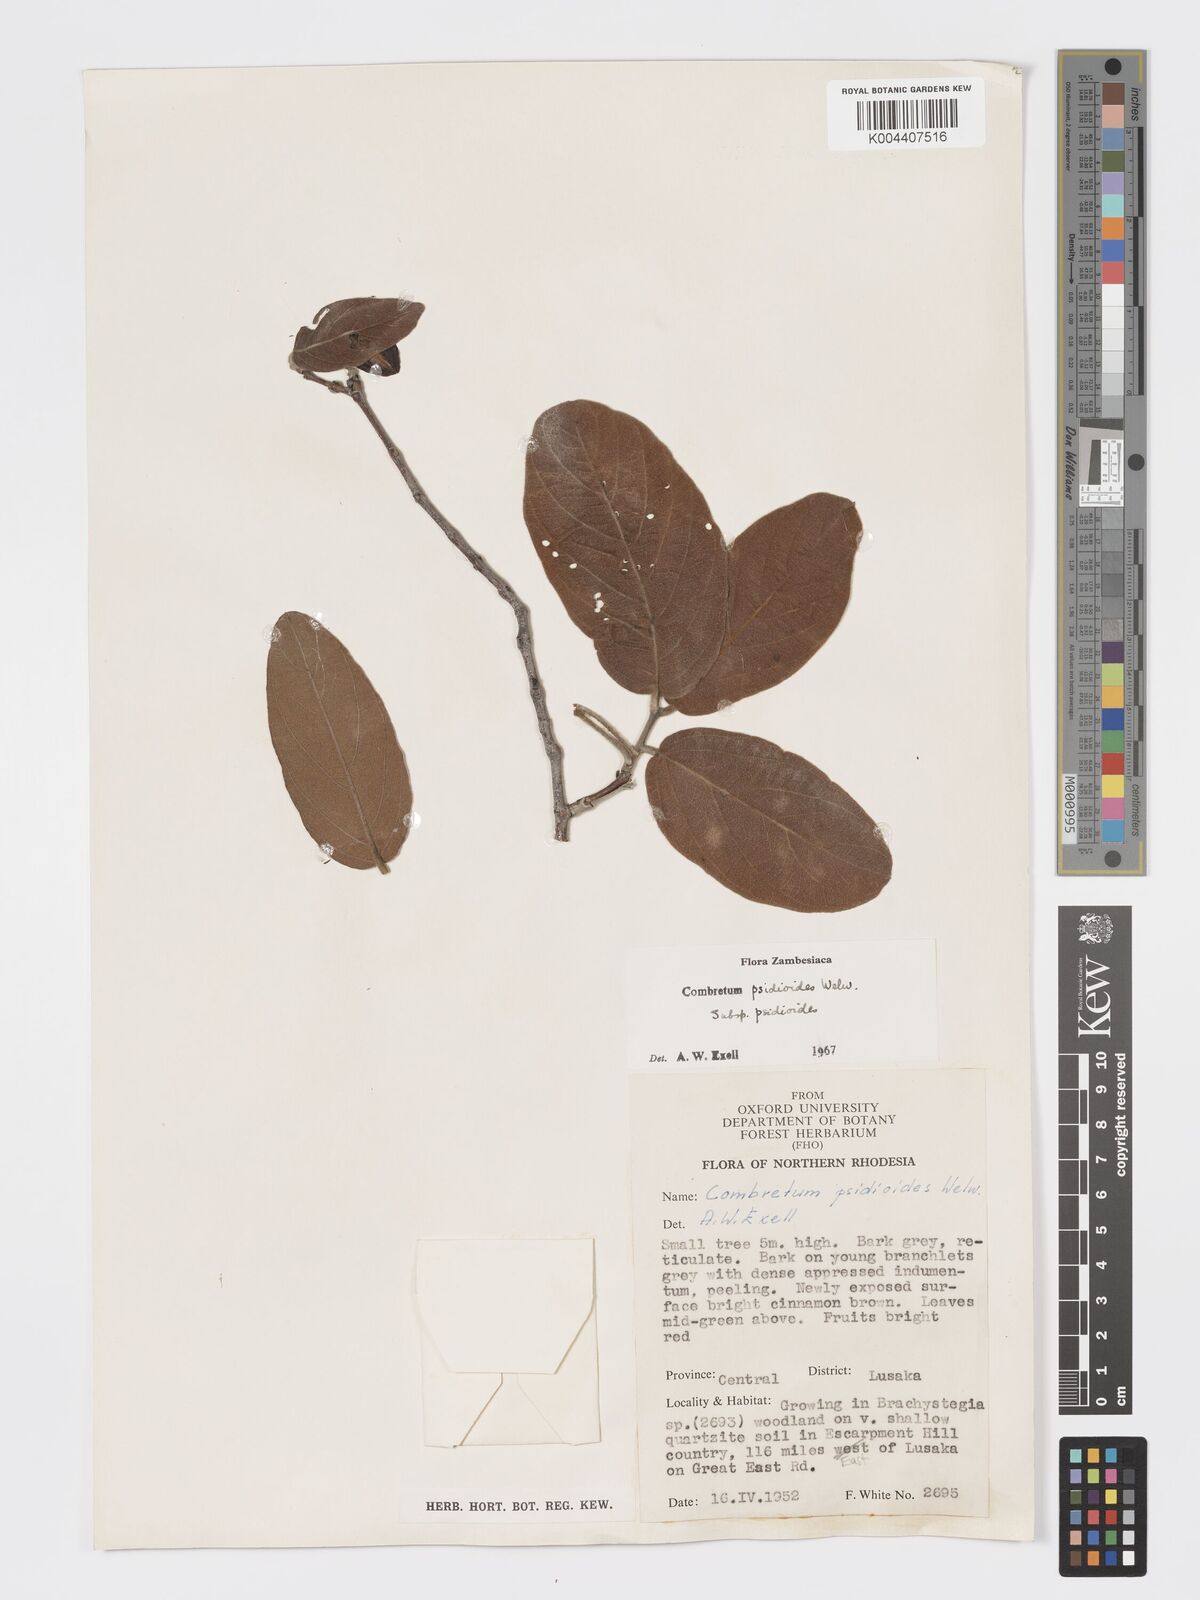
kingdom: Plantae
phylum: Tracheophyta
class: Magnoliopsida
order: Myrtales
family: Combretaceae
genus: Combretum
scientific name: Combretum psidioides
